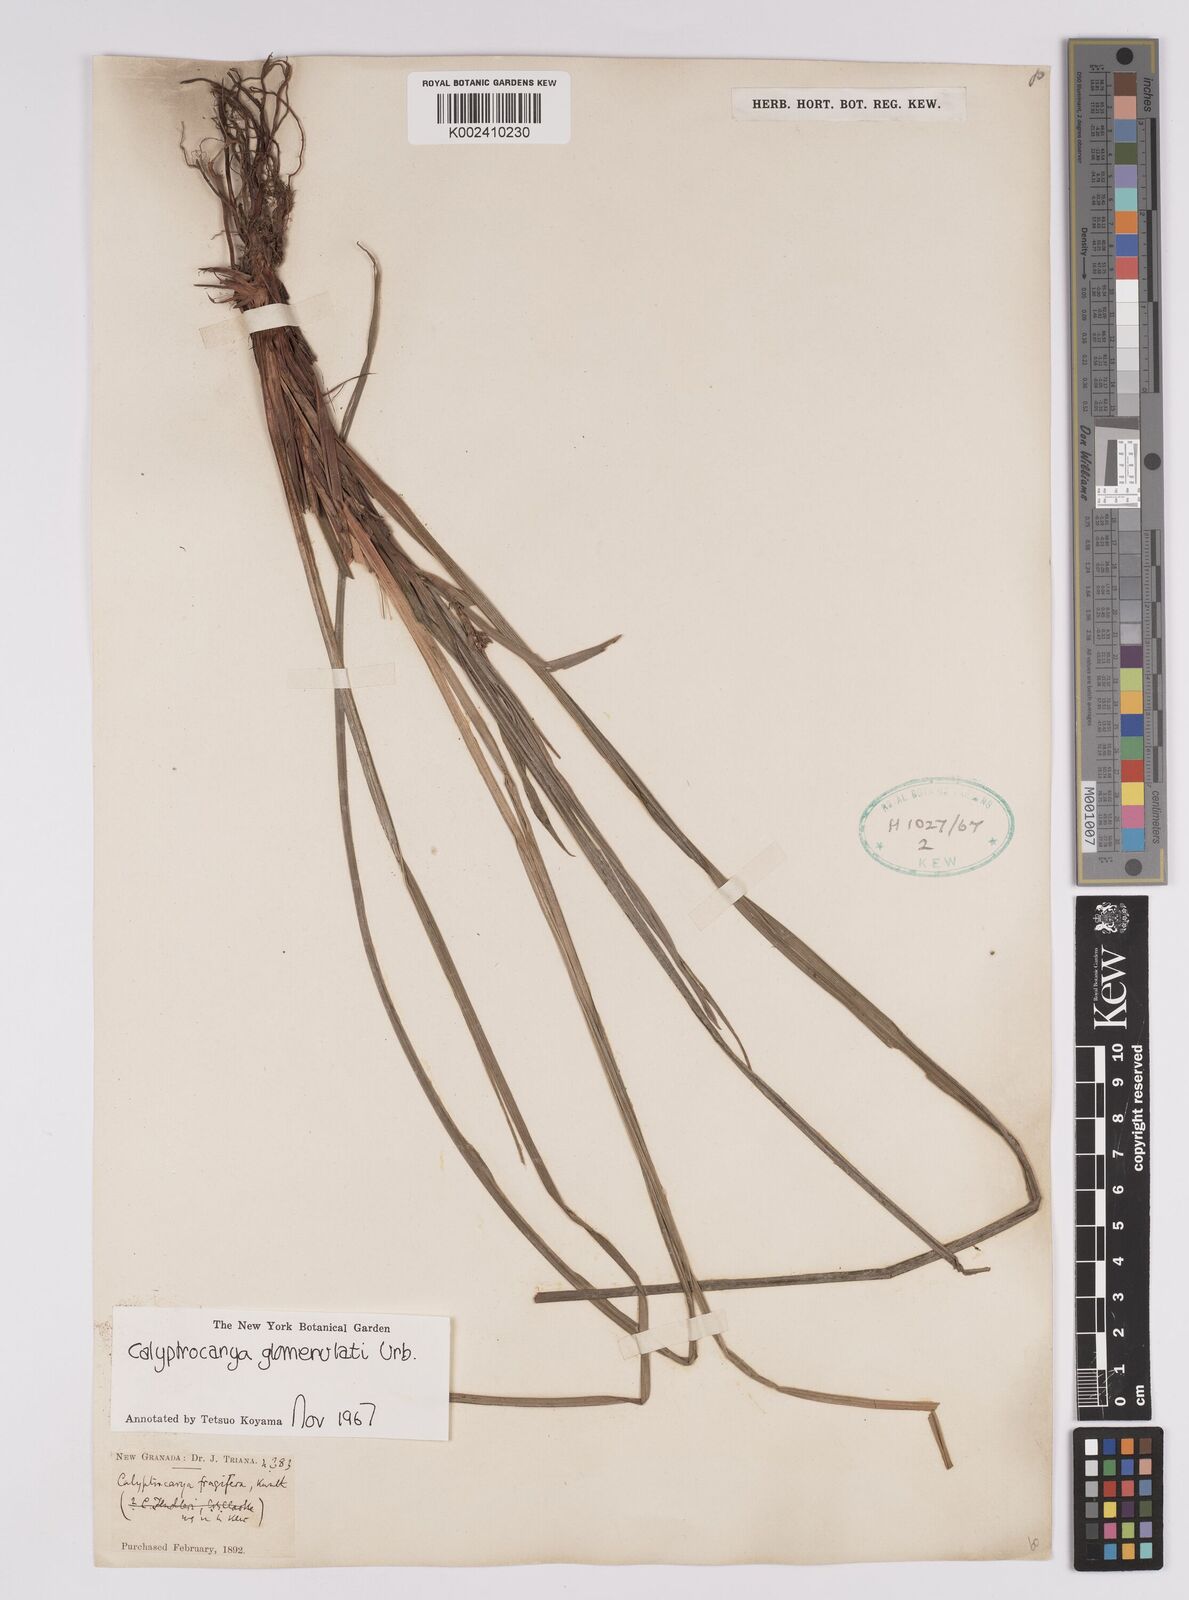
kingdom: Plantae
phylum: Tracheophyta
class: Liliopsida
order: Poales
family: Cyperaceae
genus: Calyptrocarya
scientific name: Calyptrocarya glomerulata
